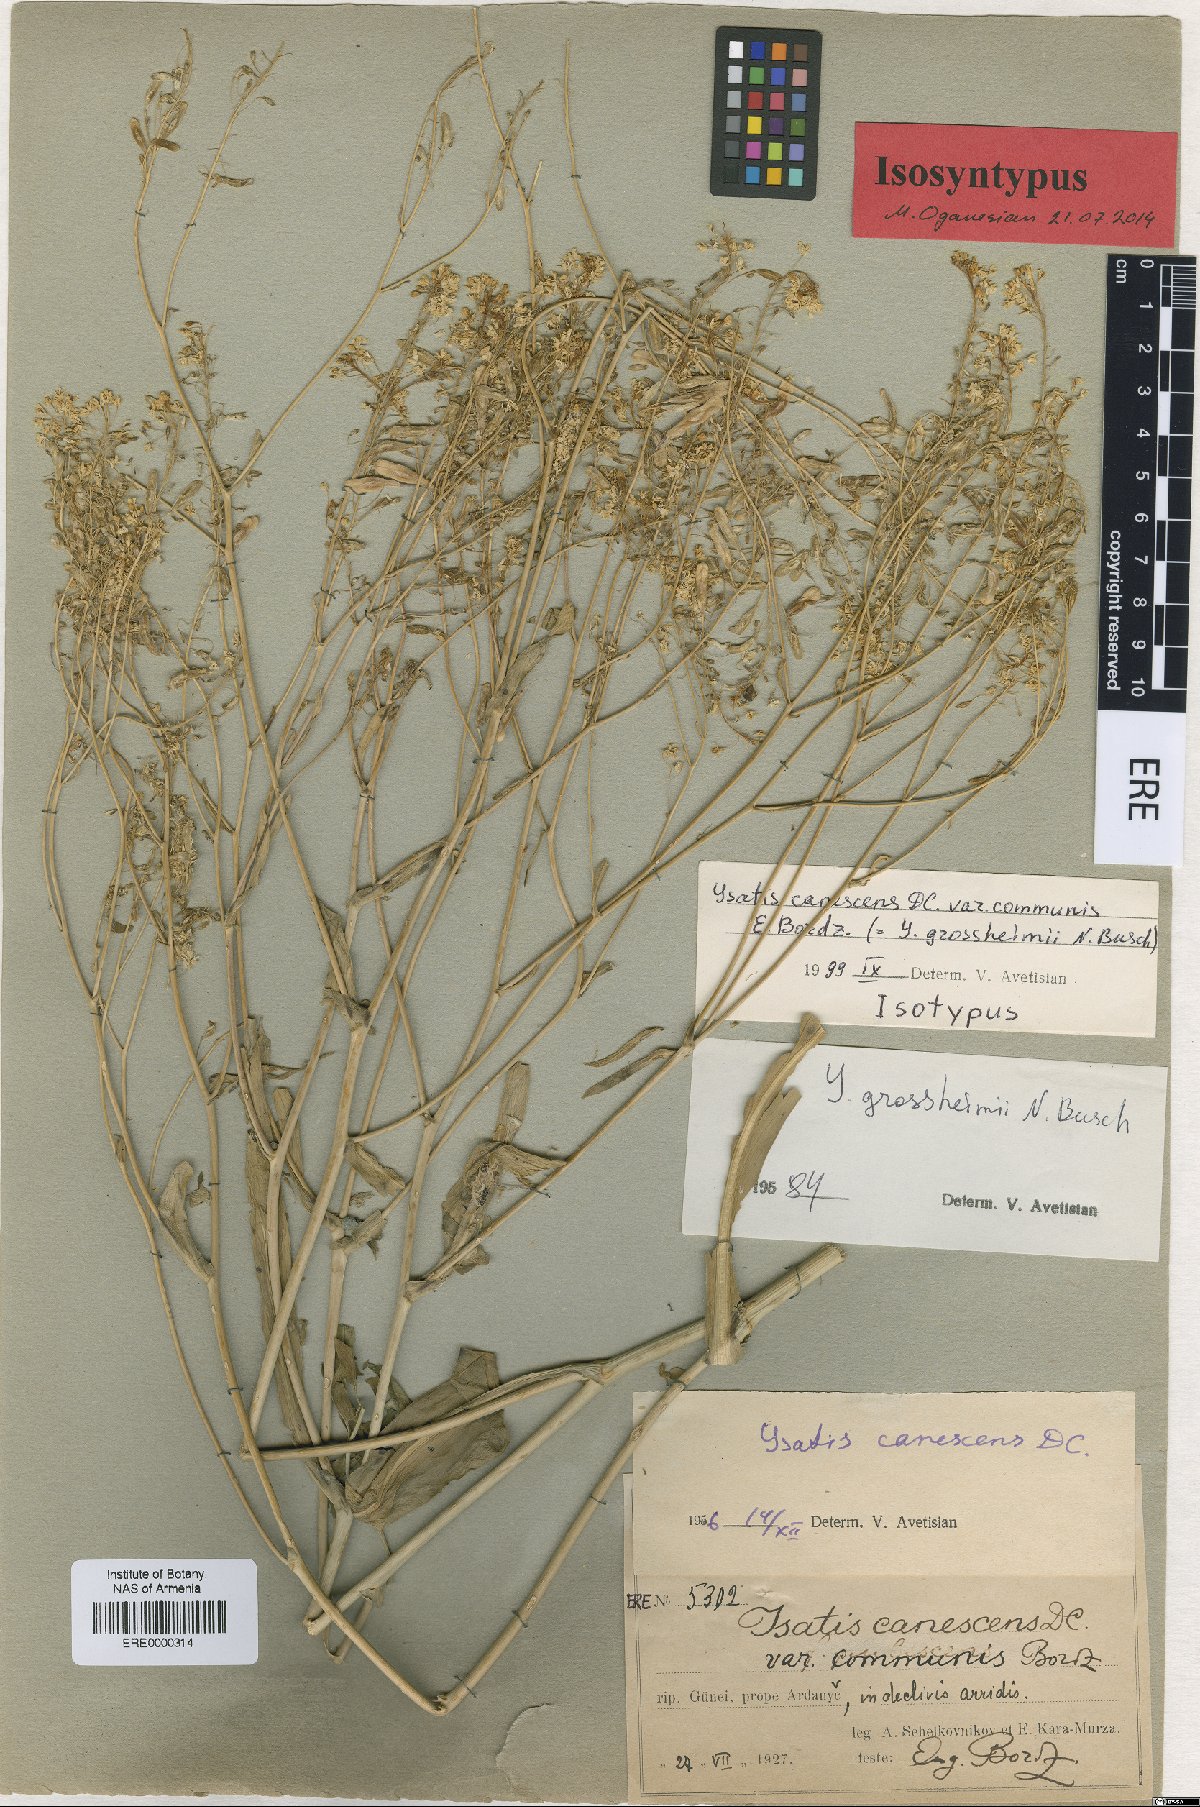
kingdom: Plantae
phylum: Tracheophyta
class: Magnoliopsida
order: Brassicales
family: Brassicaceae
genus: Isatis
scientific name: Isatis tinctoria
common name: Woad
